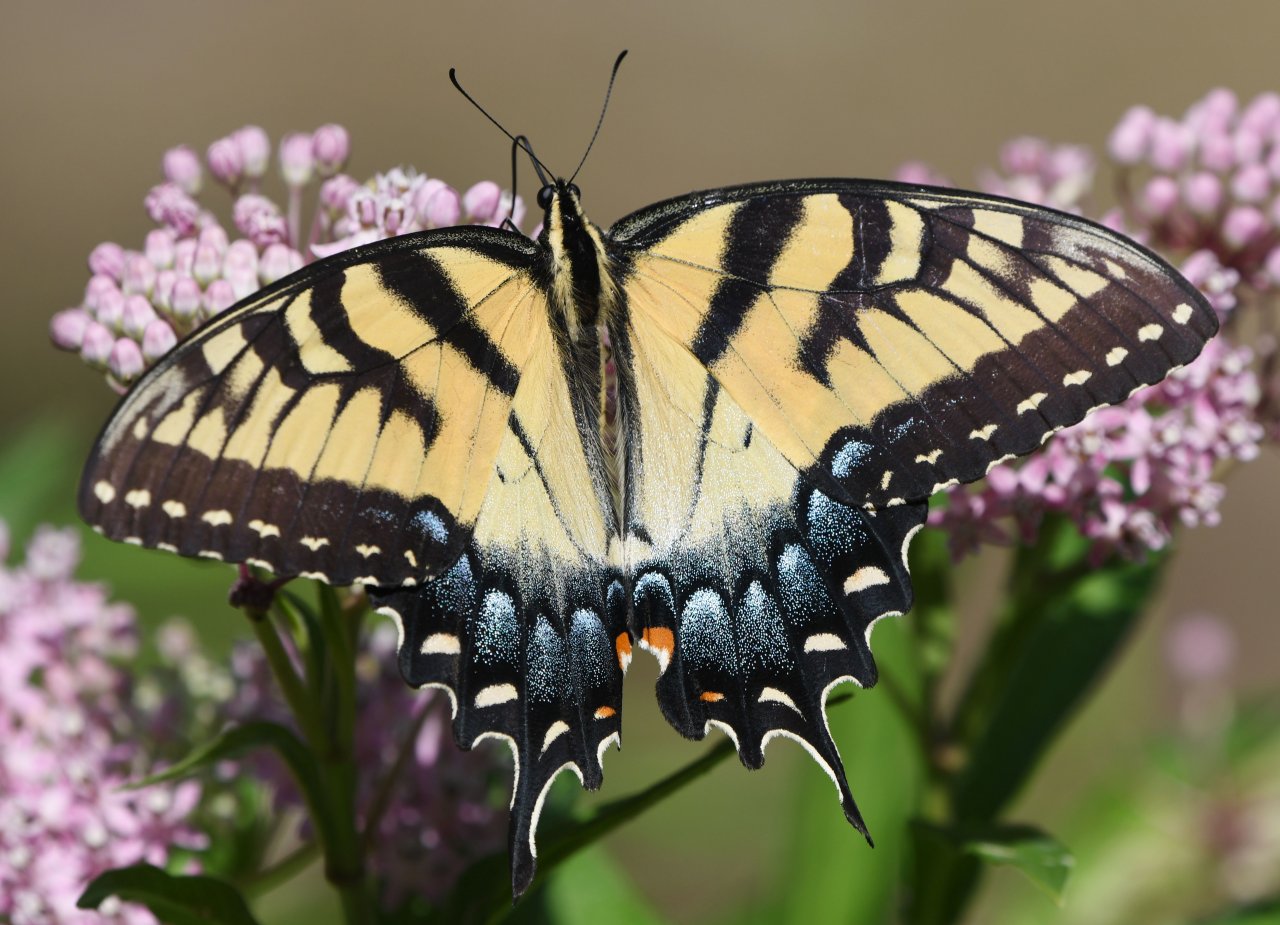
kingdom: Animalia
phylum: Arthropoda
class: Insecta
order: Lepidoptera
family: Papilionidae
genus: Pterourus
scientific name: Pterourus glaucus
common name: Eastern Tiger Swallowtail
